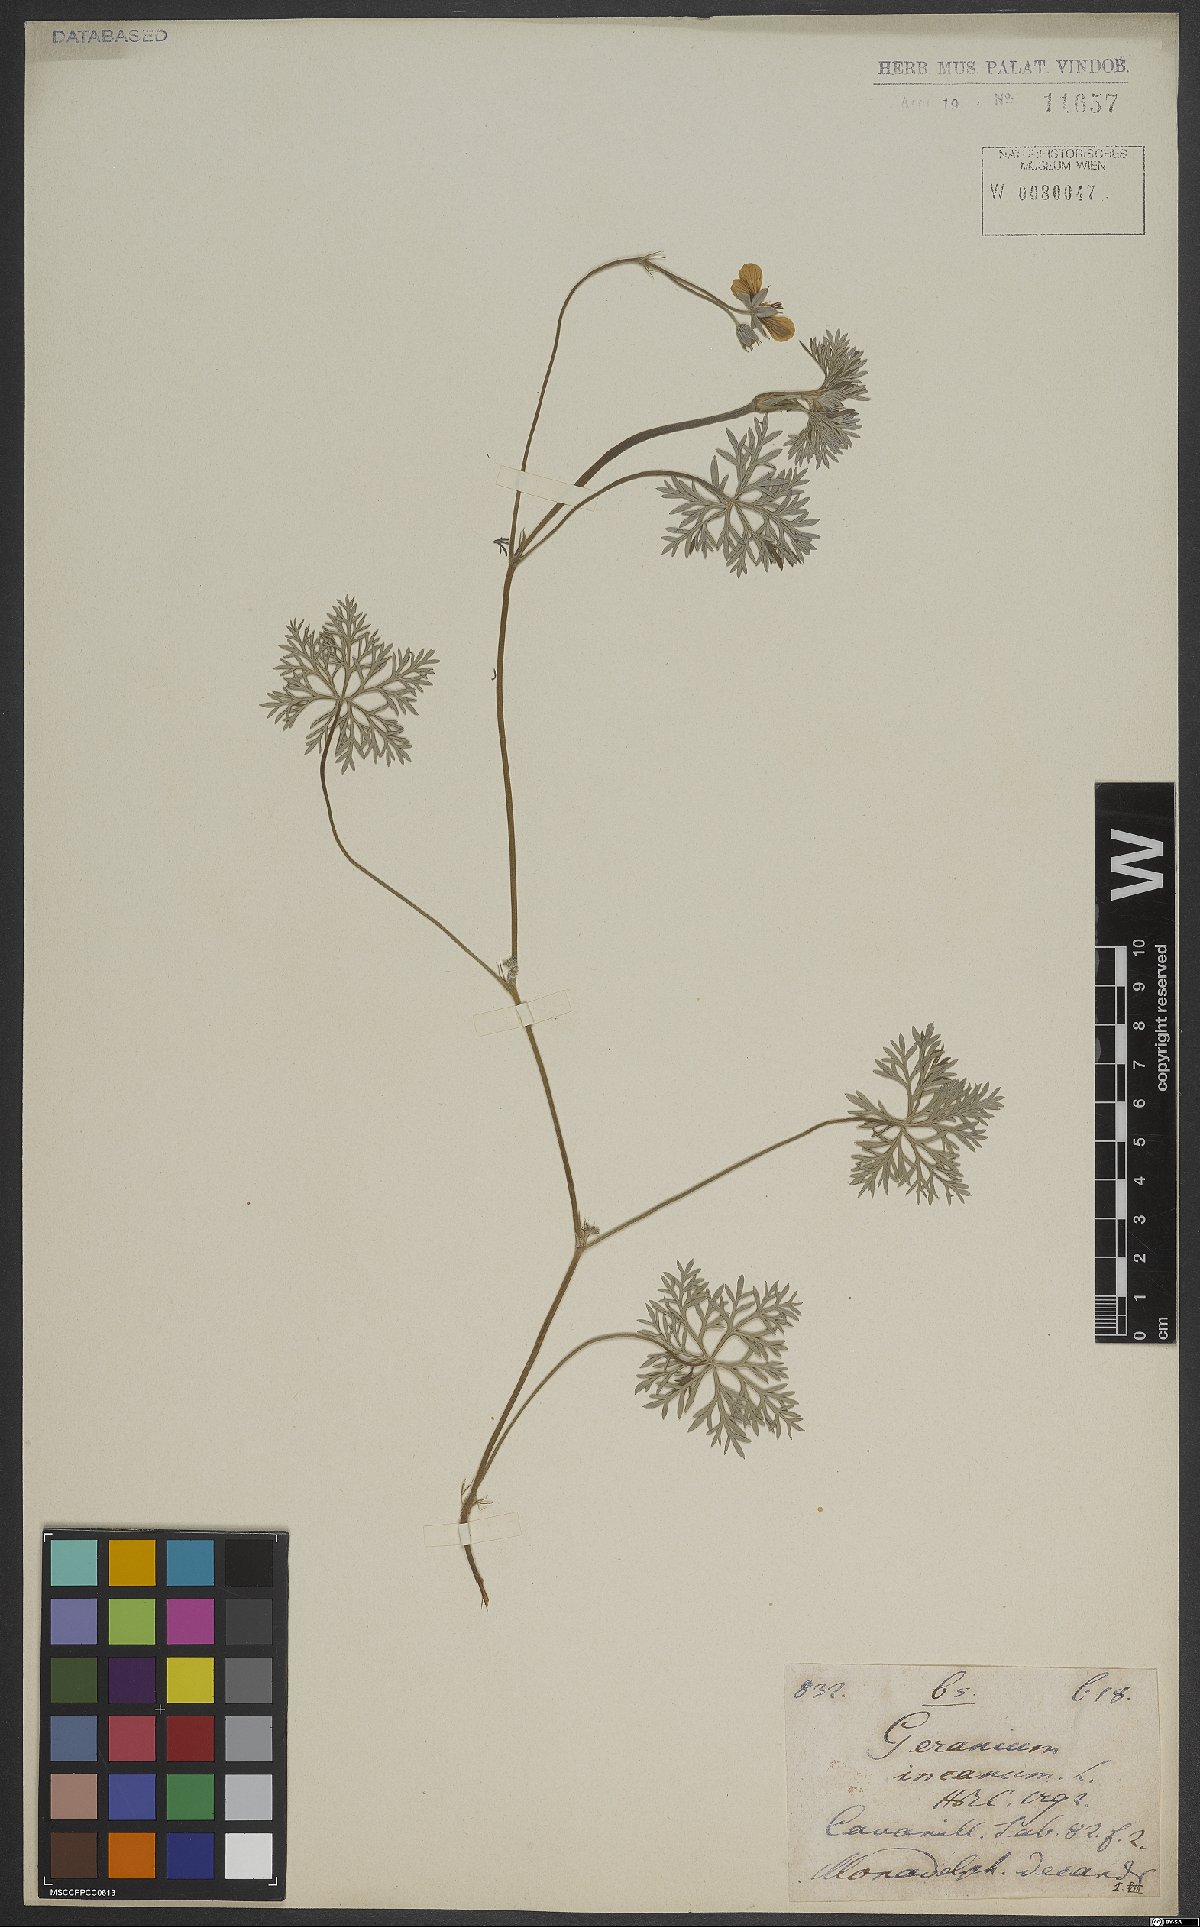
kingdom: Plantae
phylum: Tracheophyta
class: Magnoliopsida
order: Geraniales
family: Geraniaceae
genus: Geranium
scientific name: Geranium incanum
